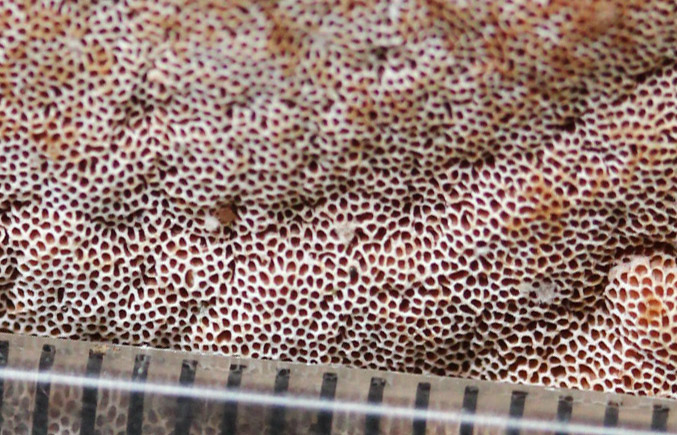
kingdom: Fungi
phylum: Basidiomycota
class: Agaricomycetes
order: Polyporales
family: Irpicaceae
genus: Vitreoporus
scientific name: Vitreoporus dichrous
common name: tofarvet foldporesvamp
